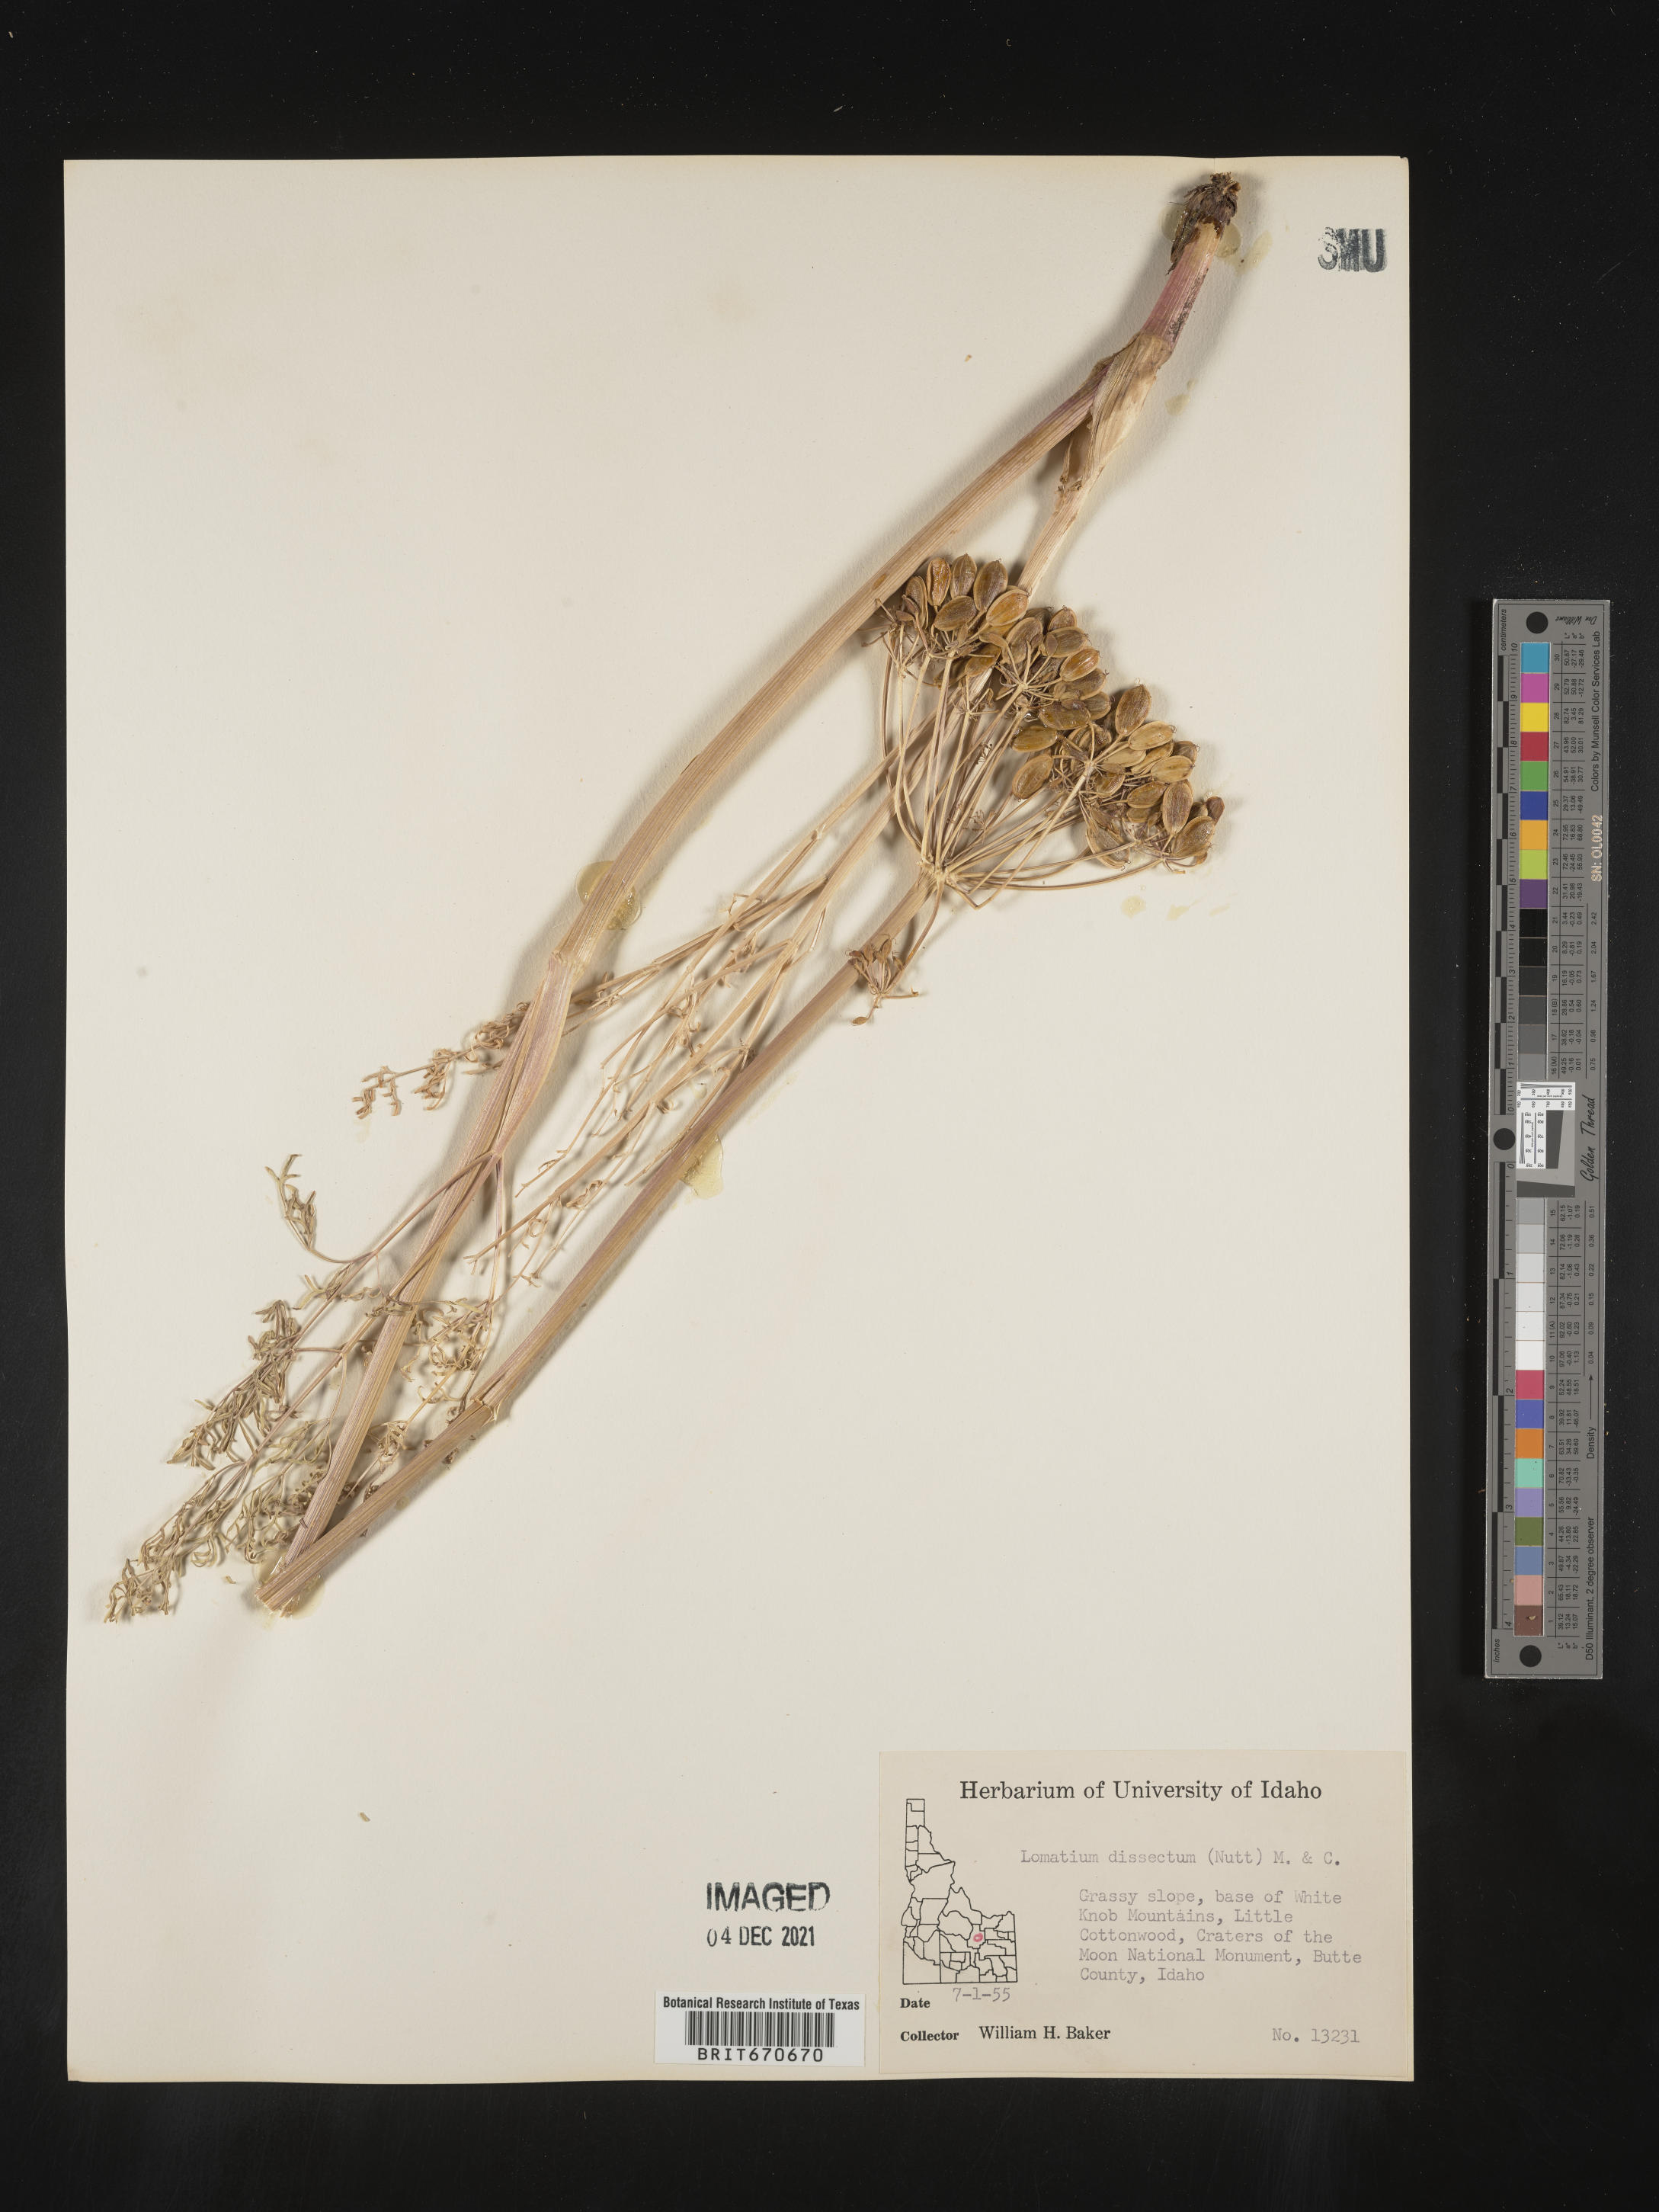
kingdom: Plantae
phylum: Tracheophyta
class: Magnoliopsida
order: Apiales
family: Apiaceae
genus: Lomatium
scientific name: Lomatium dissectum
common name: Lomatium
